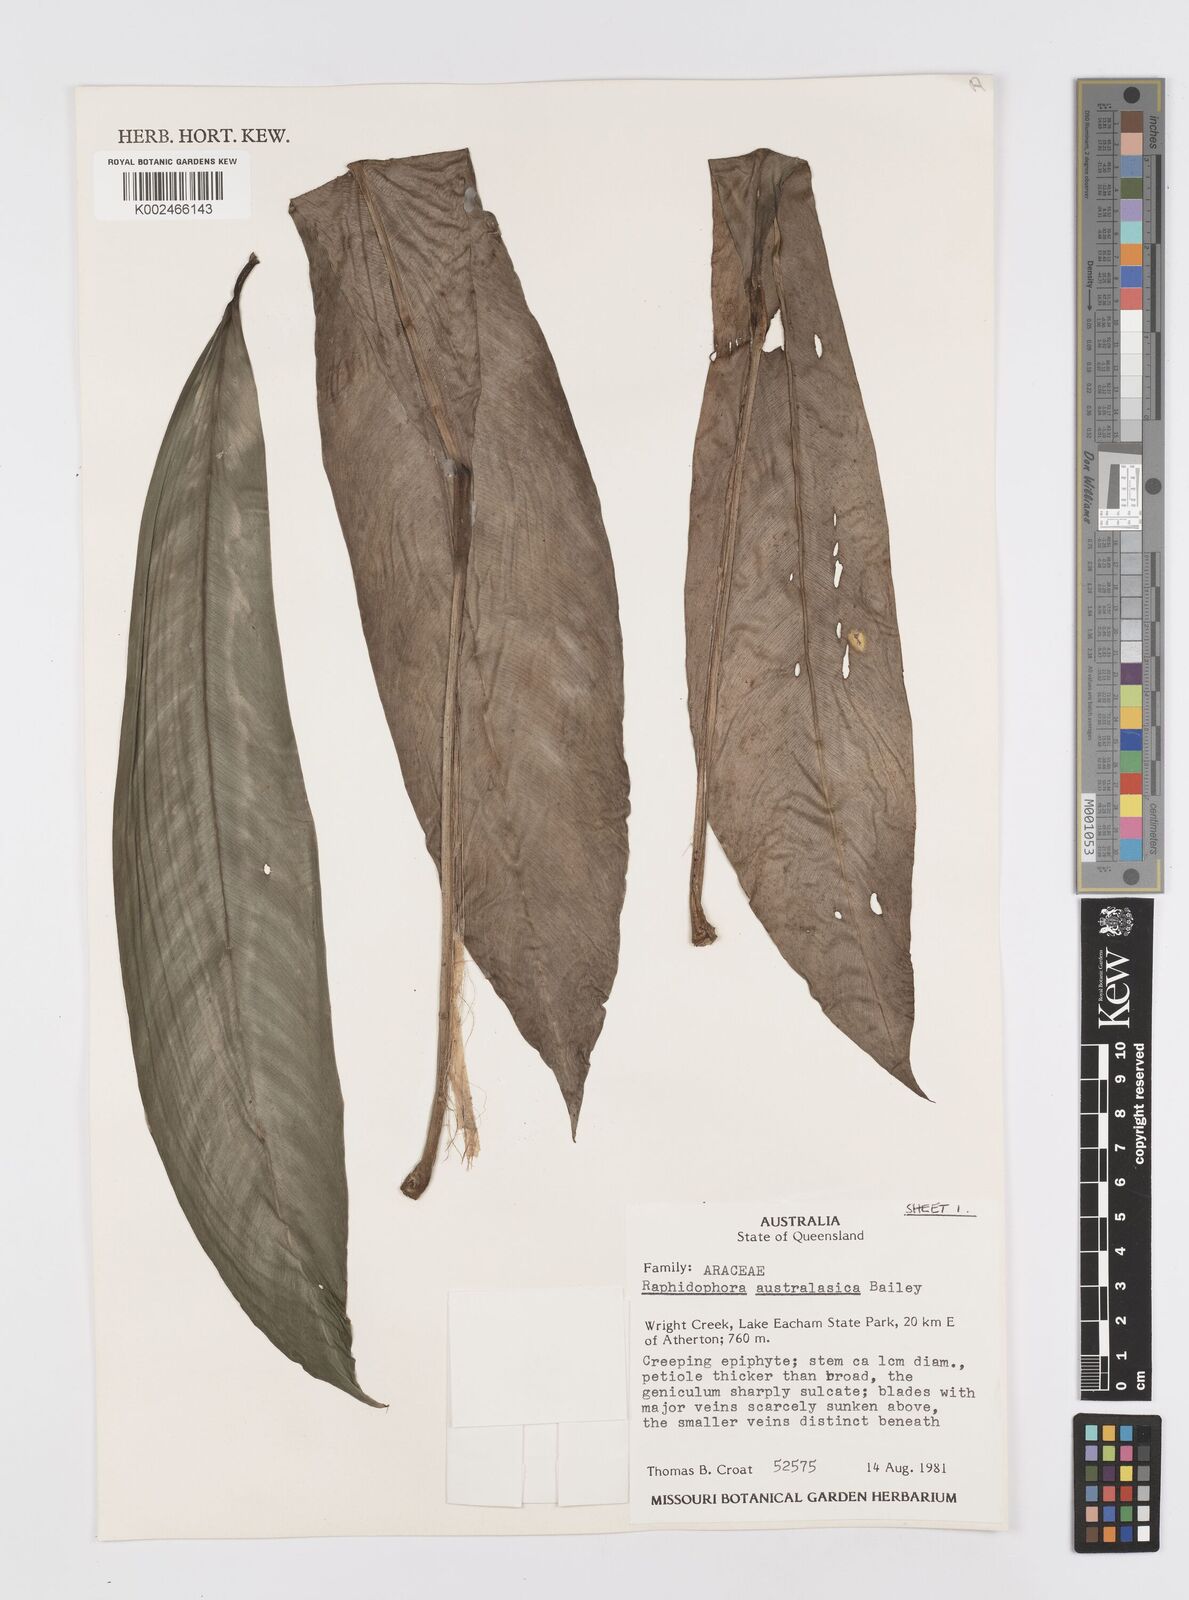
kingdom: Plantae
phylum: Tracheophyta
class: Liliopsida
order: Alismatales
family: Araceae
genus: Rhaphidophora
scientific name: Rhaphidophora australasica
